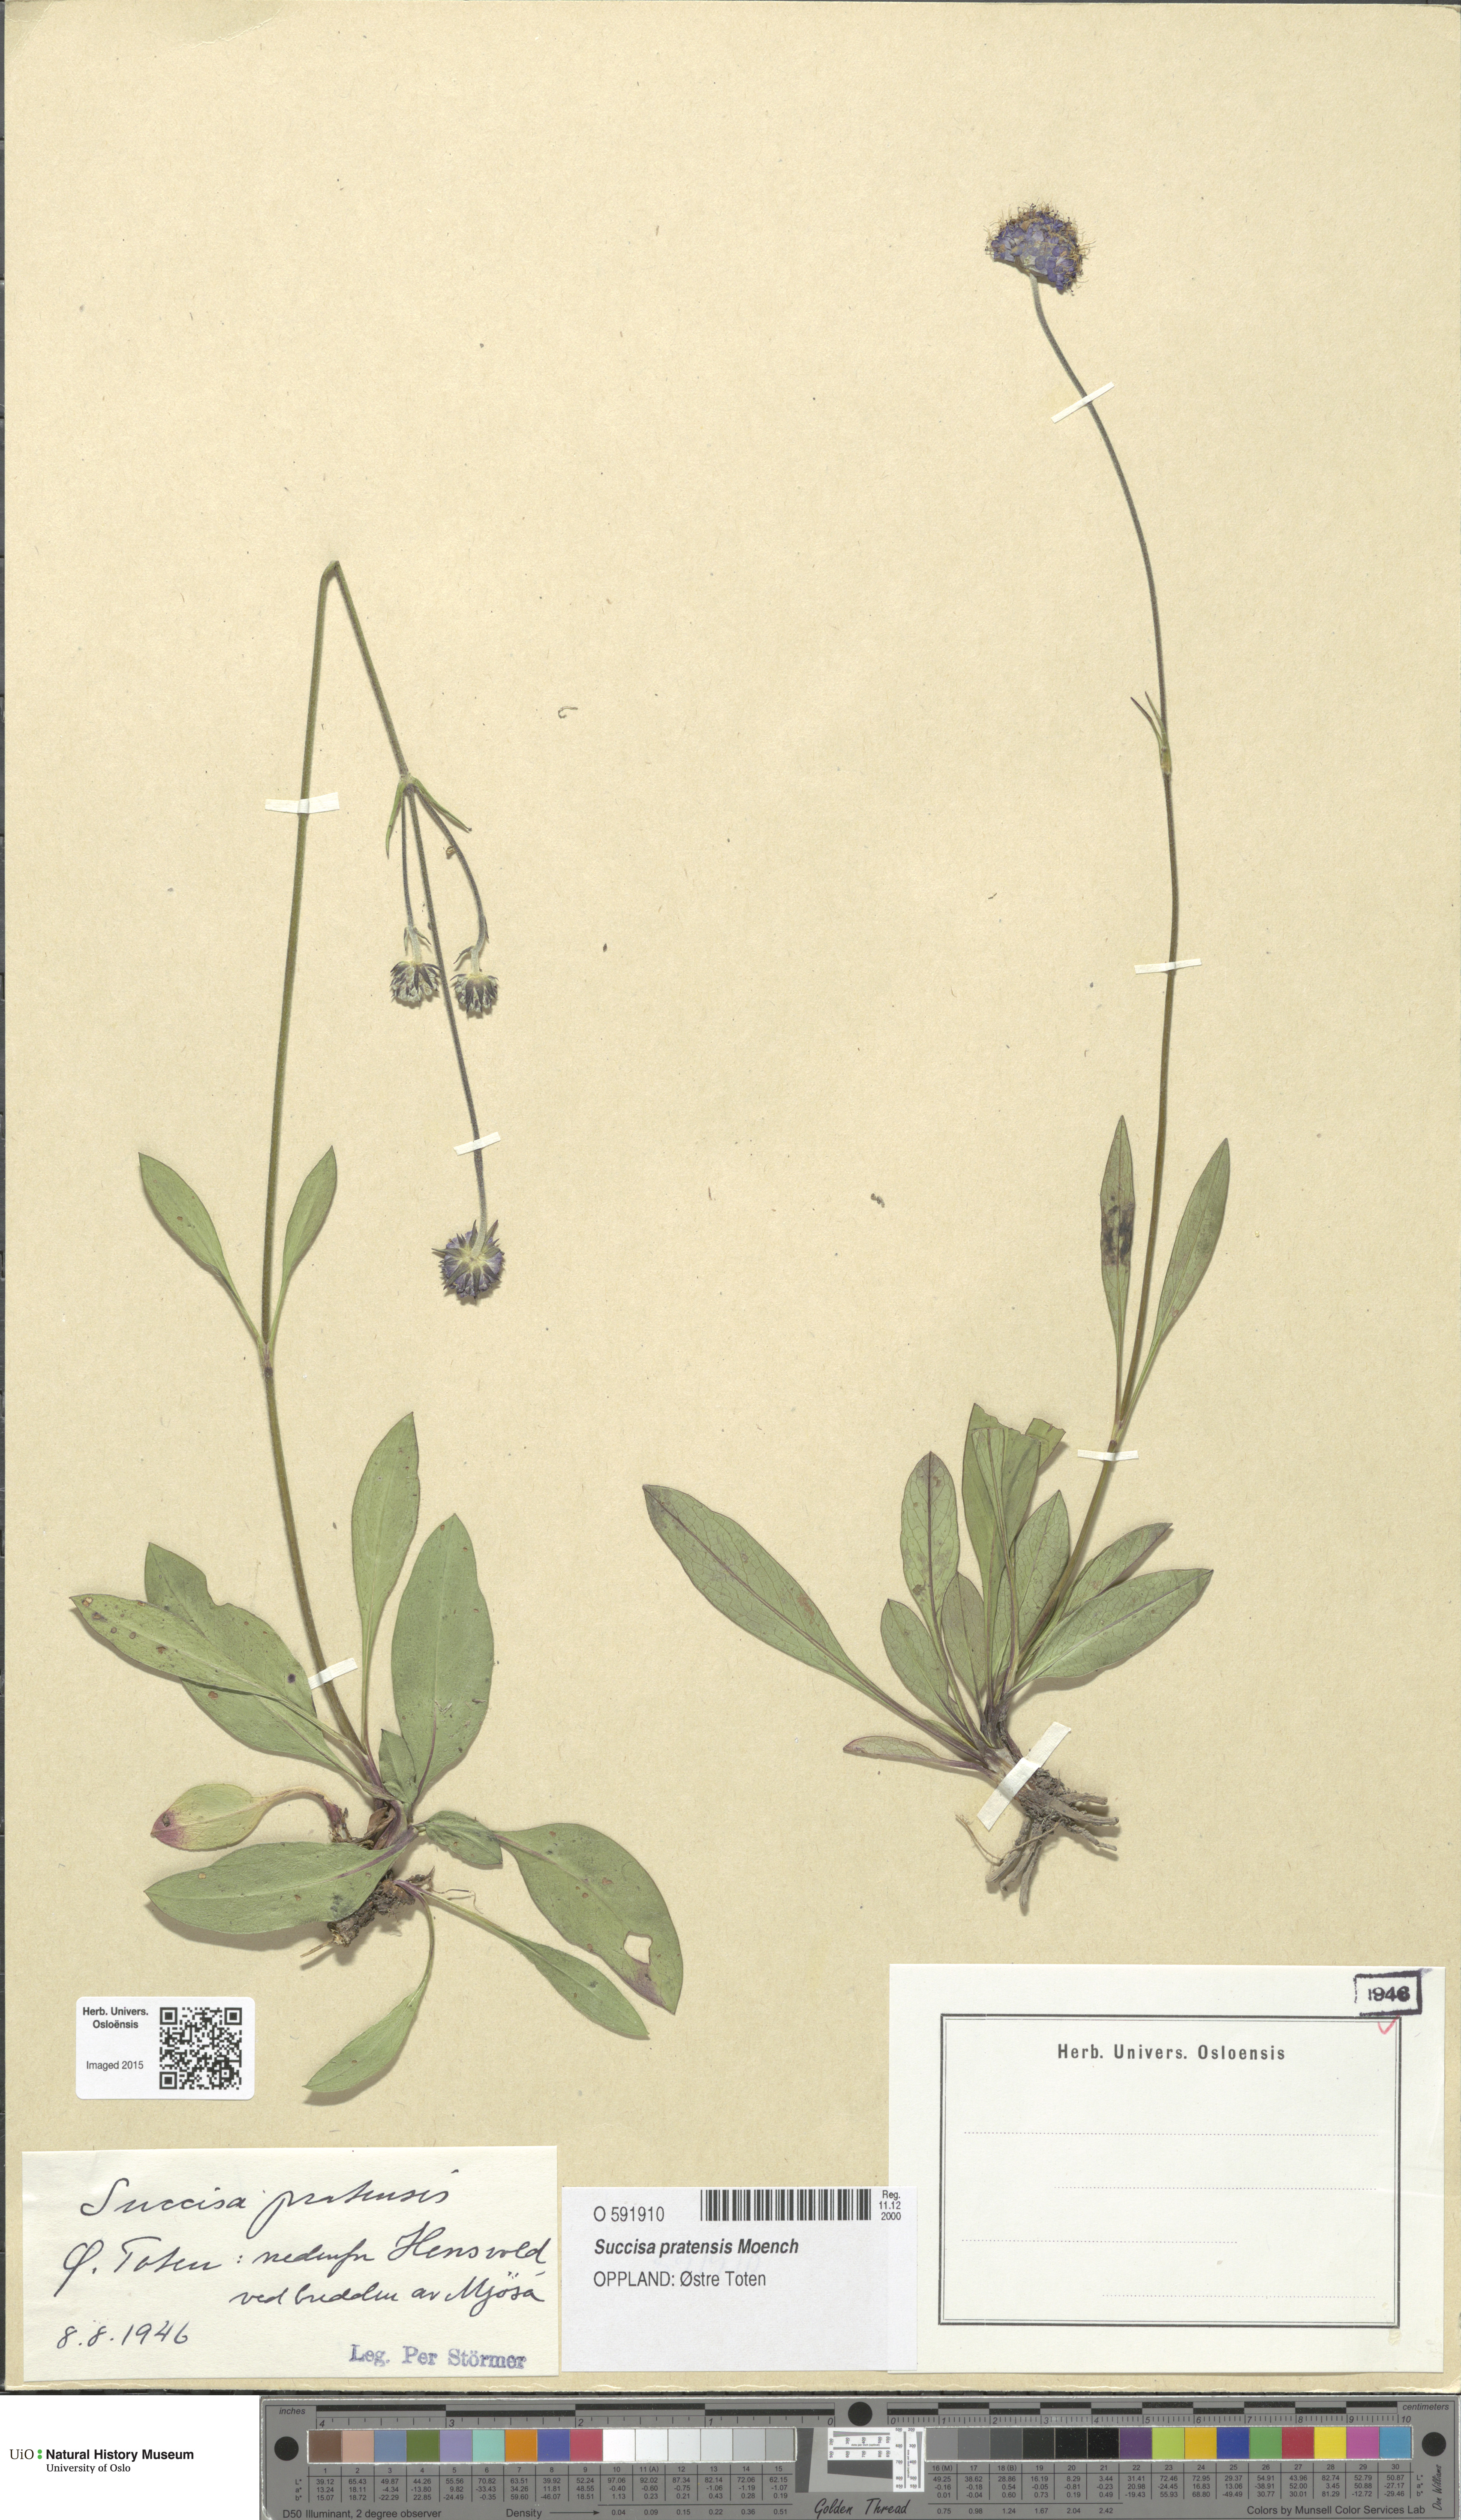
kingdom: Plantae
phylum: Tracheophyta
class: Magnoliopsida
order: Dipsacales
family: Caprifoliaceae
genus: Succisa
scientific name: Succisa pratensis
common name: Devil's-bit
